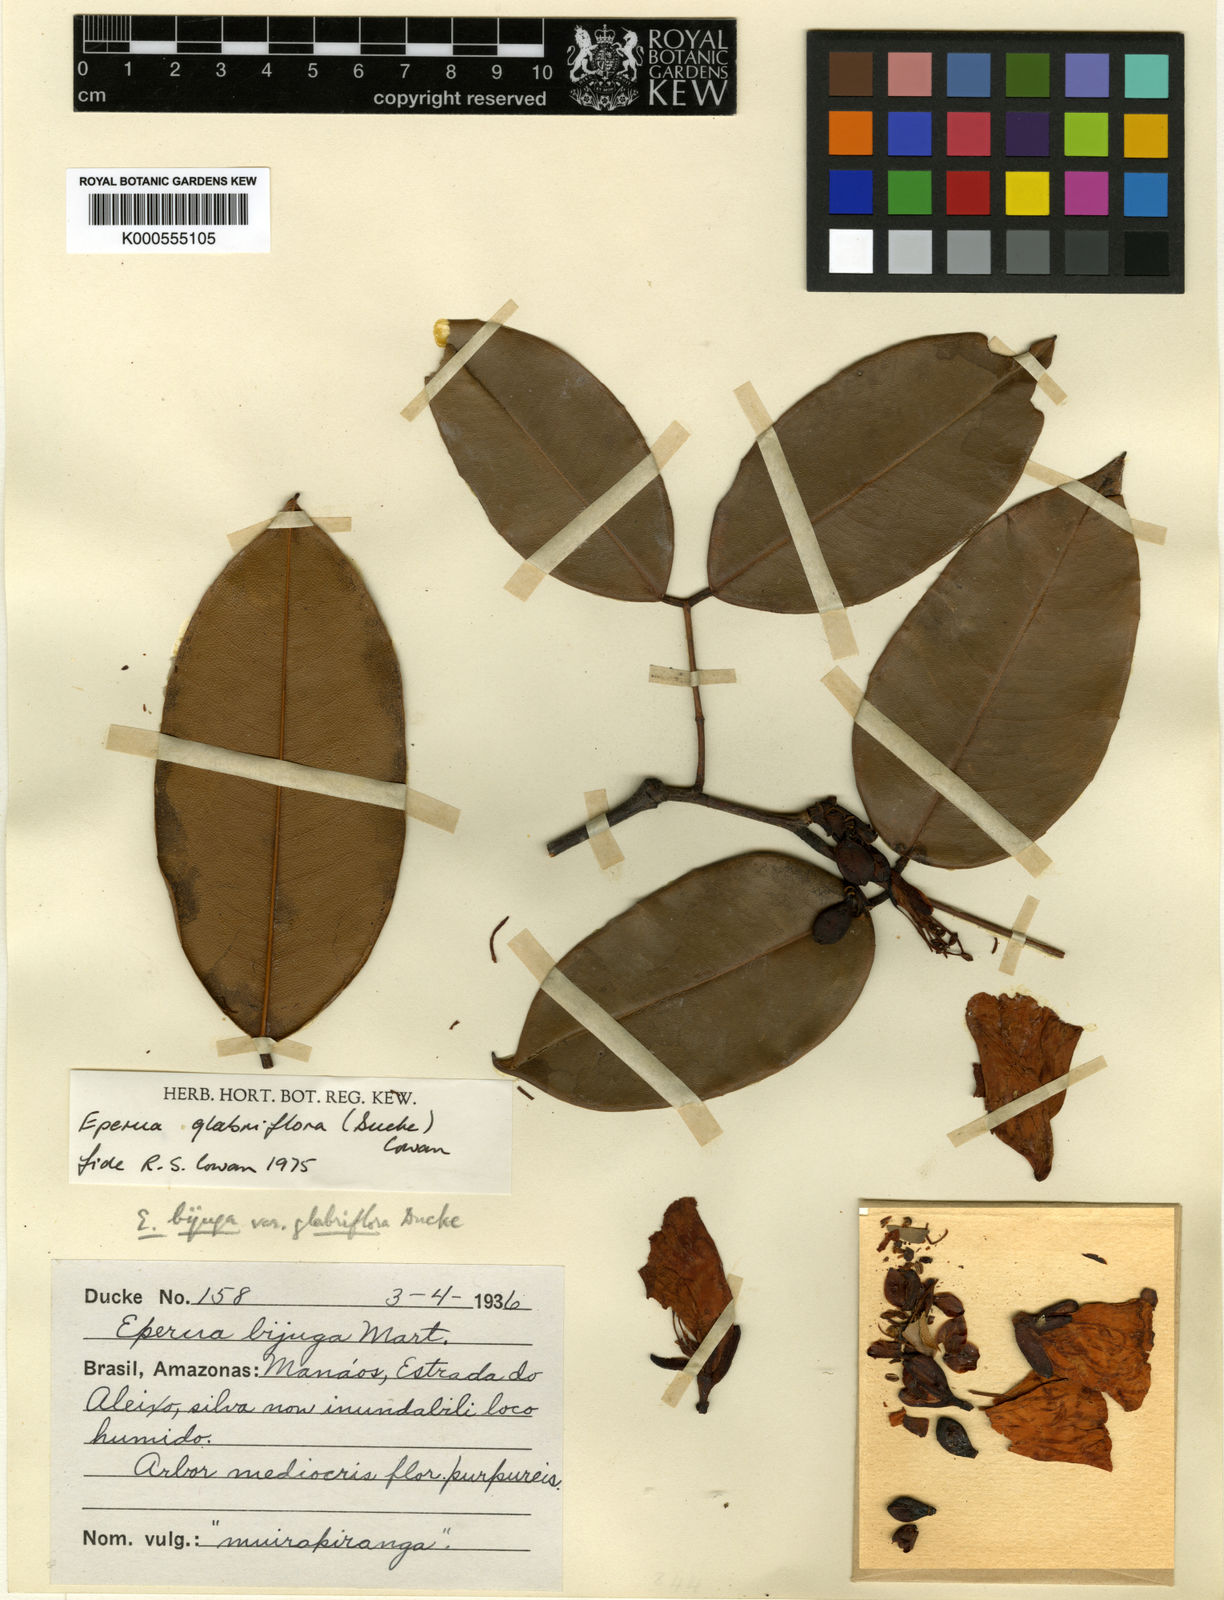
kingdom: Plantae
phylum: Tracheophyta
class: Magnoliopsida
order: Fabales
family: Fabaceae
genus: Eperua
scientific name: Eperua glabriflora
